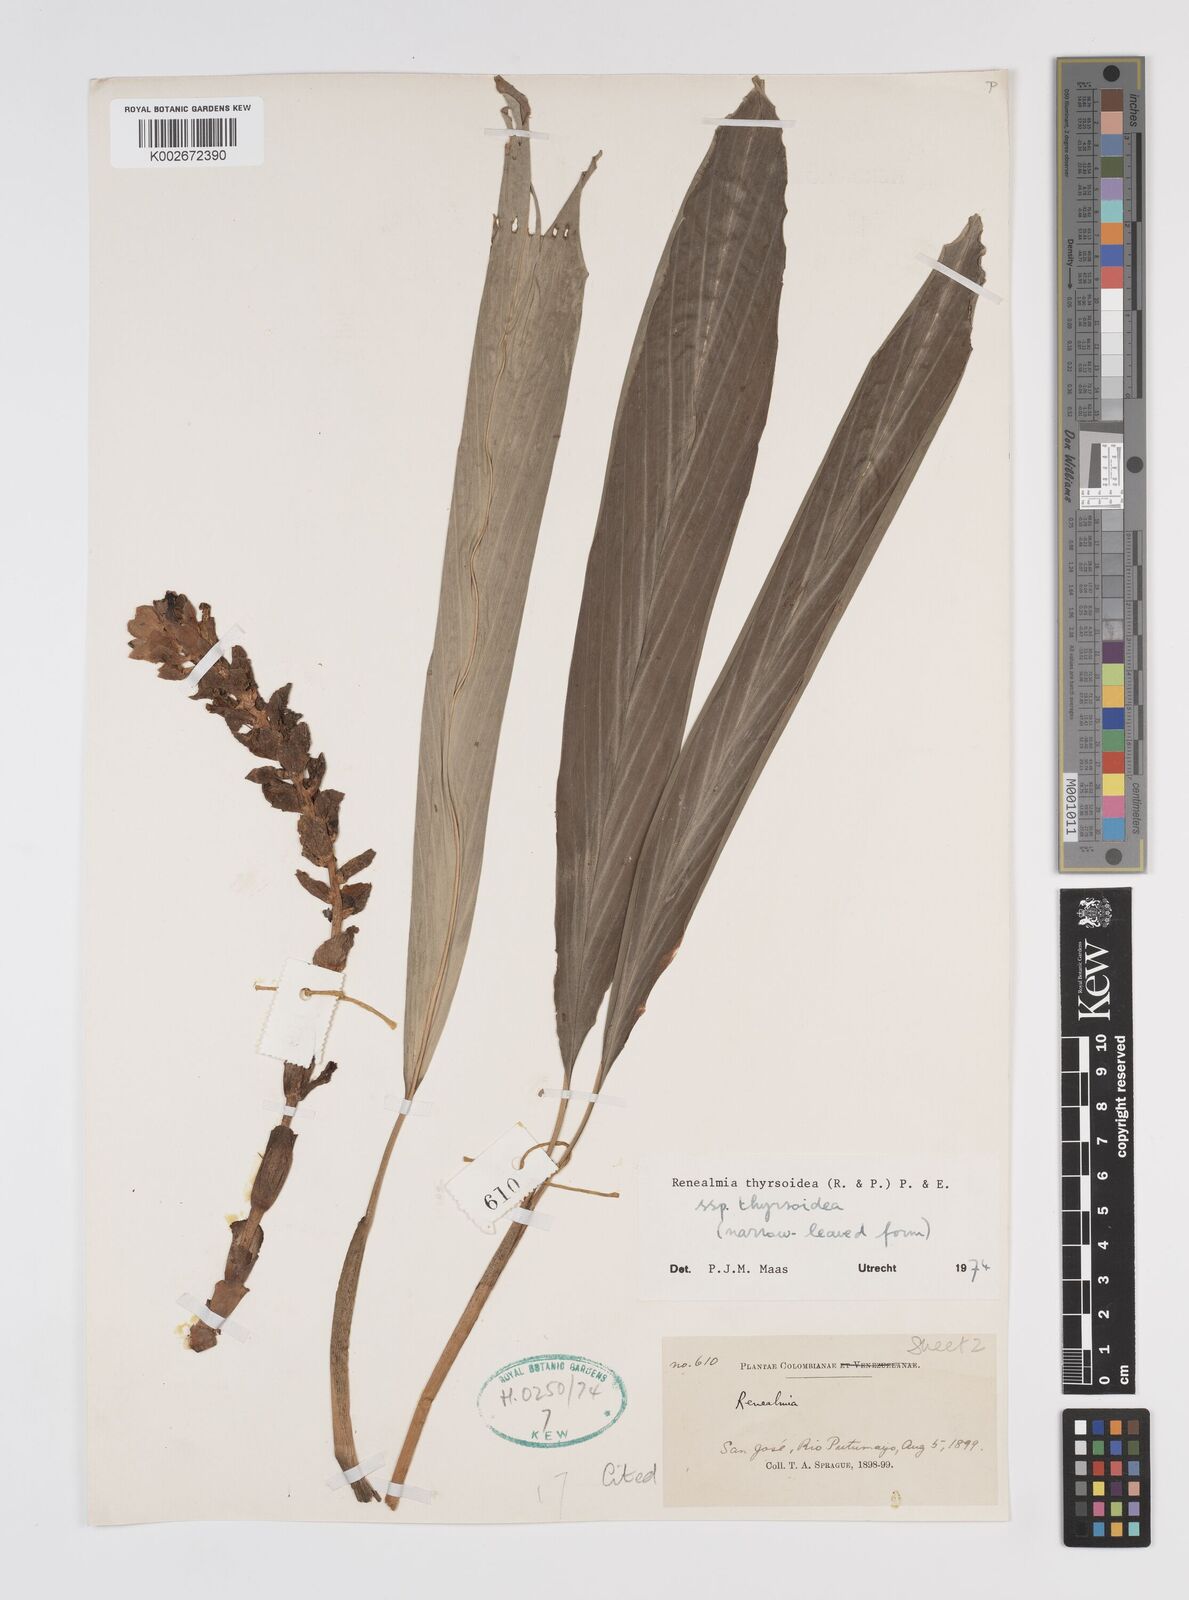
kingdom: Plantae
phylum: Tracheophyta
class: Liliopsida
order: Zingiberales
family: Zingiberaceae
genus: Renealmia
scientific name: Renealmia thyrsoidea
